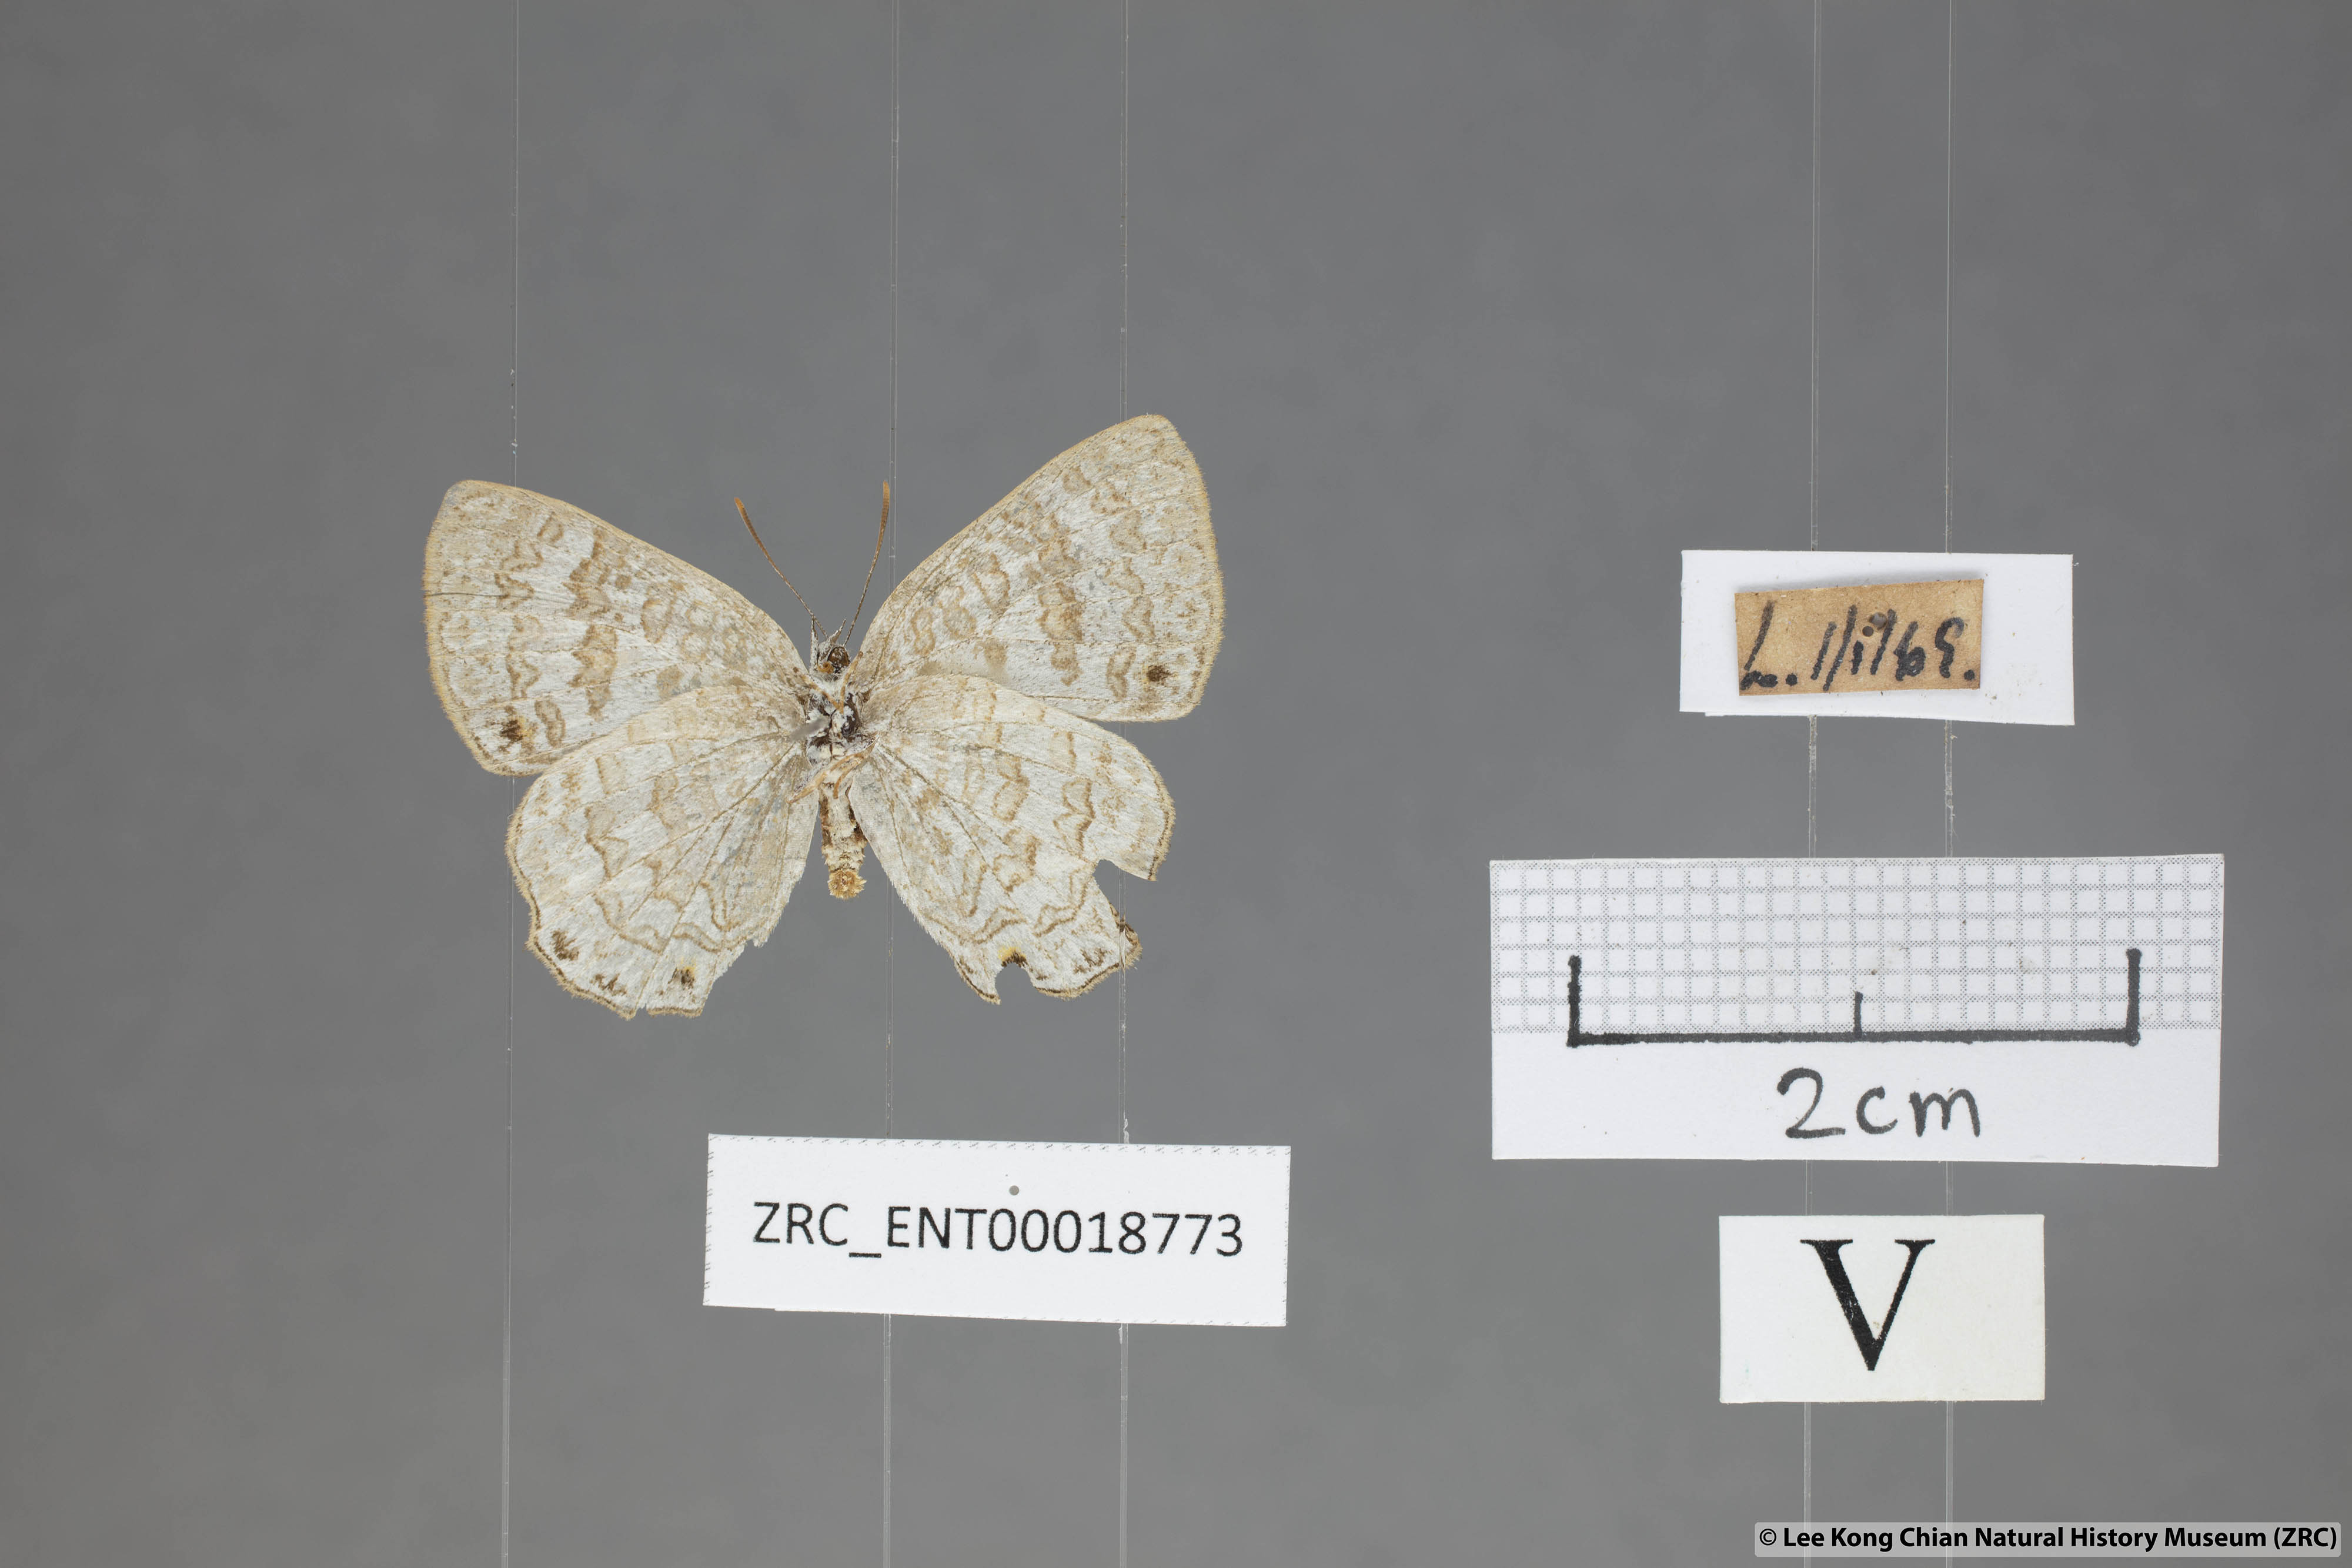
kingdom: Animalia
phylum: Arthropoda
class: Insecta
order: Lepidoptera
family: Lycaenidae
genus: Poritia
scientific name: Poritia erycinoides
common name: Blue gem
